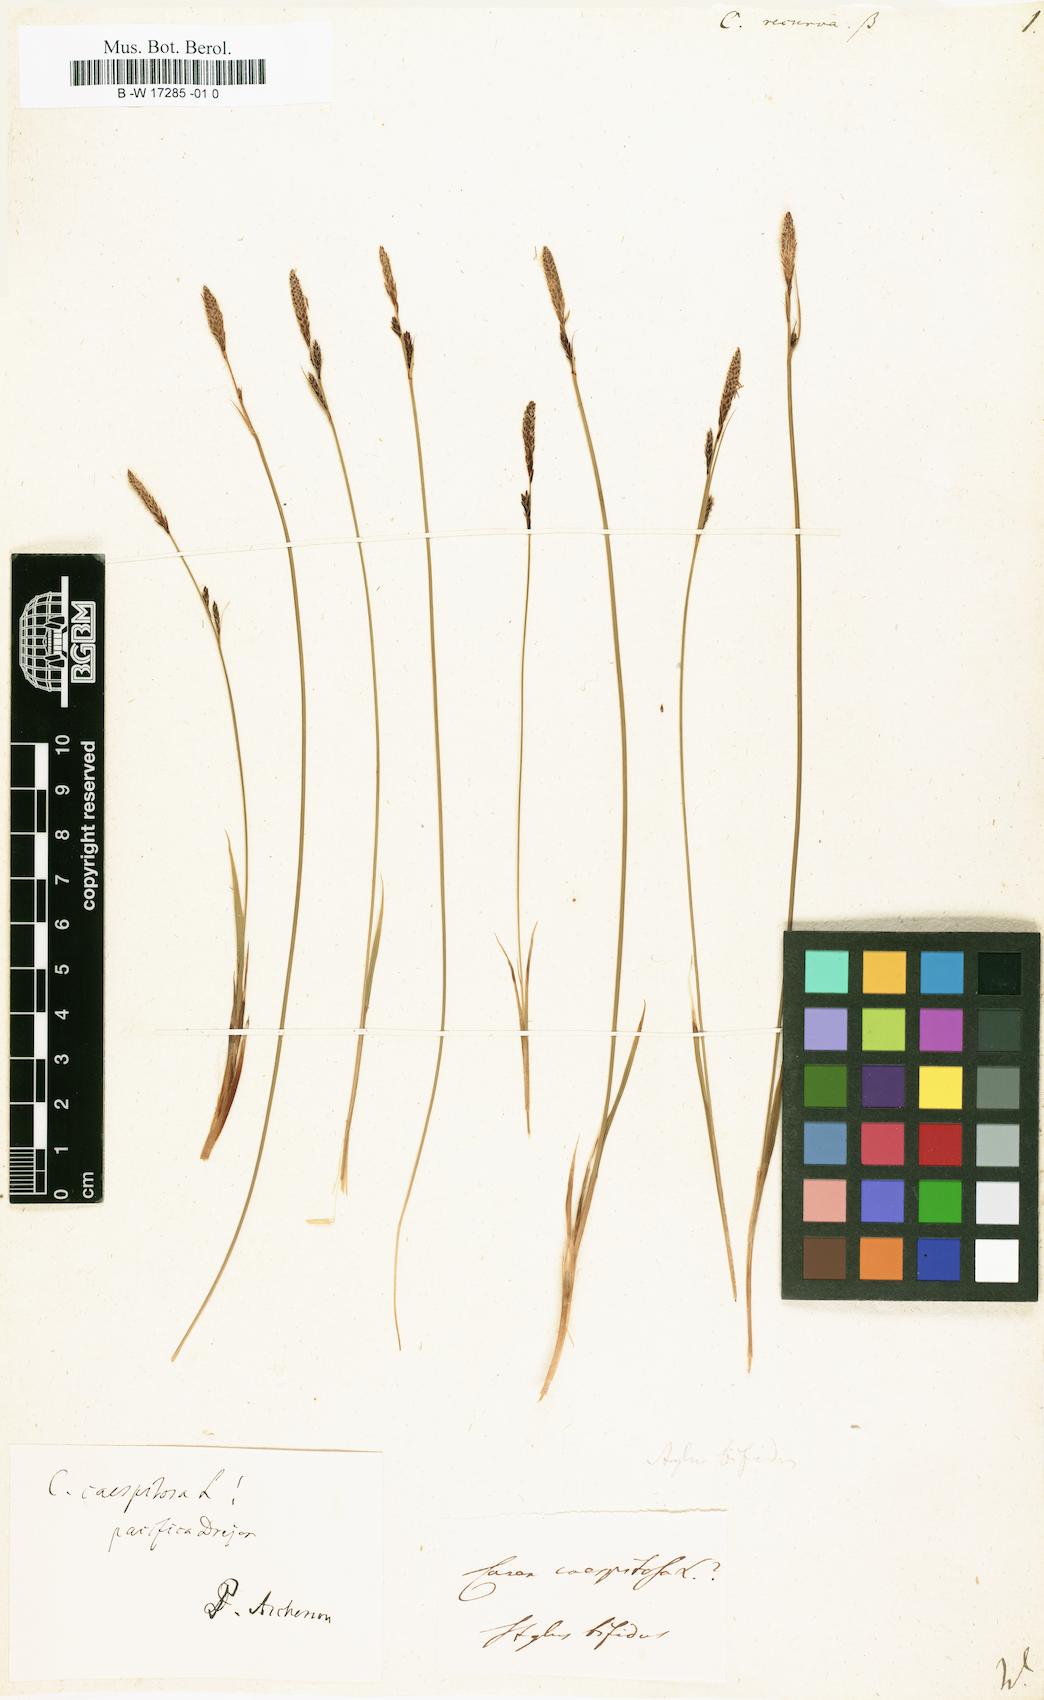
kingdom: Plantae
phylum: Tracheophyta
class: Liliopsida
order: Poales
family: Cyperaceae
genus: Carex
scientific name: Carex
